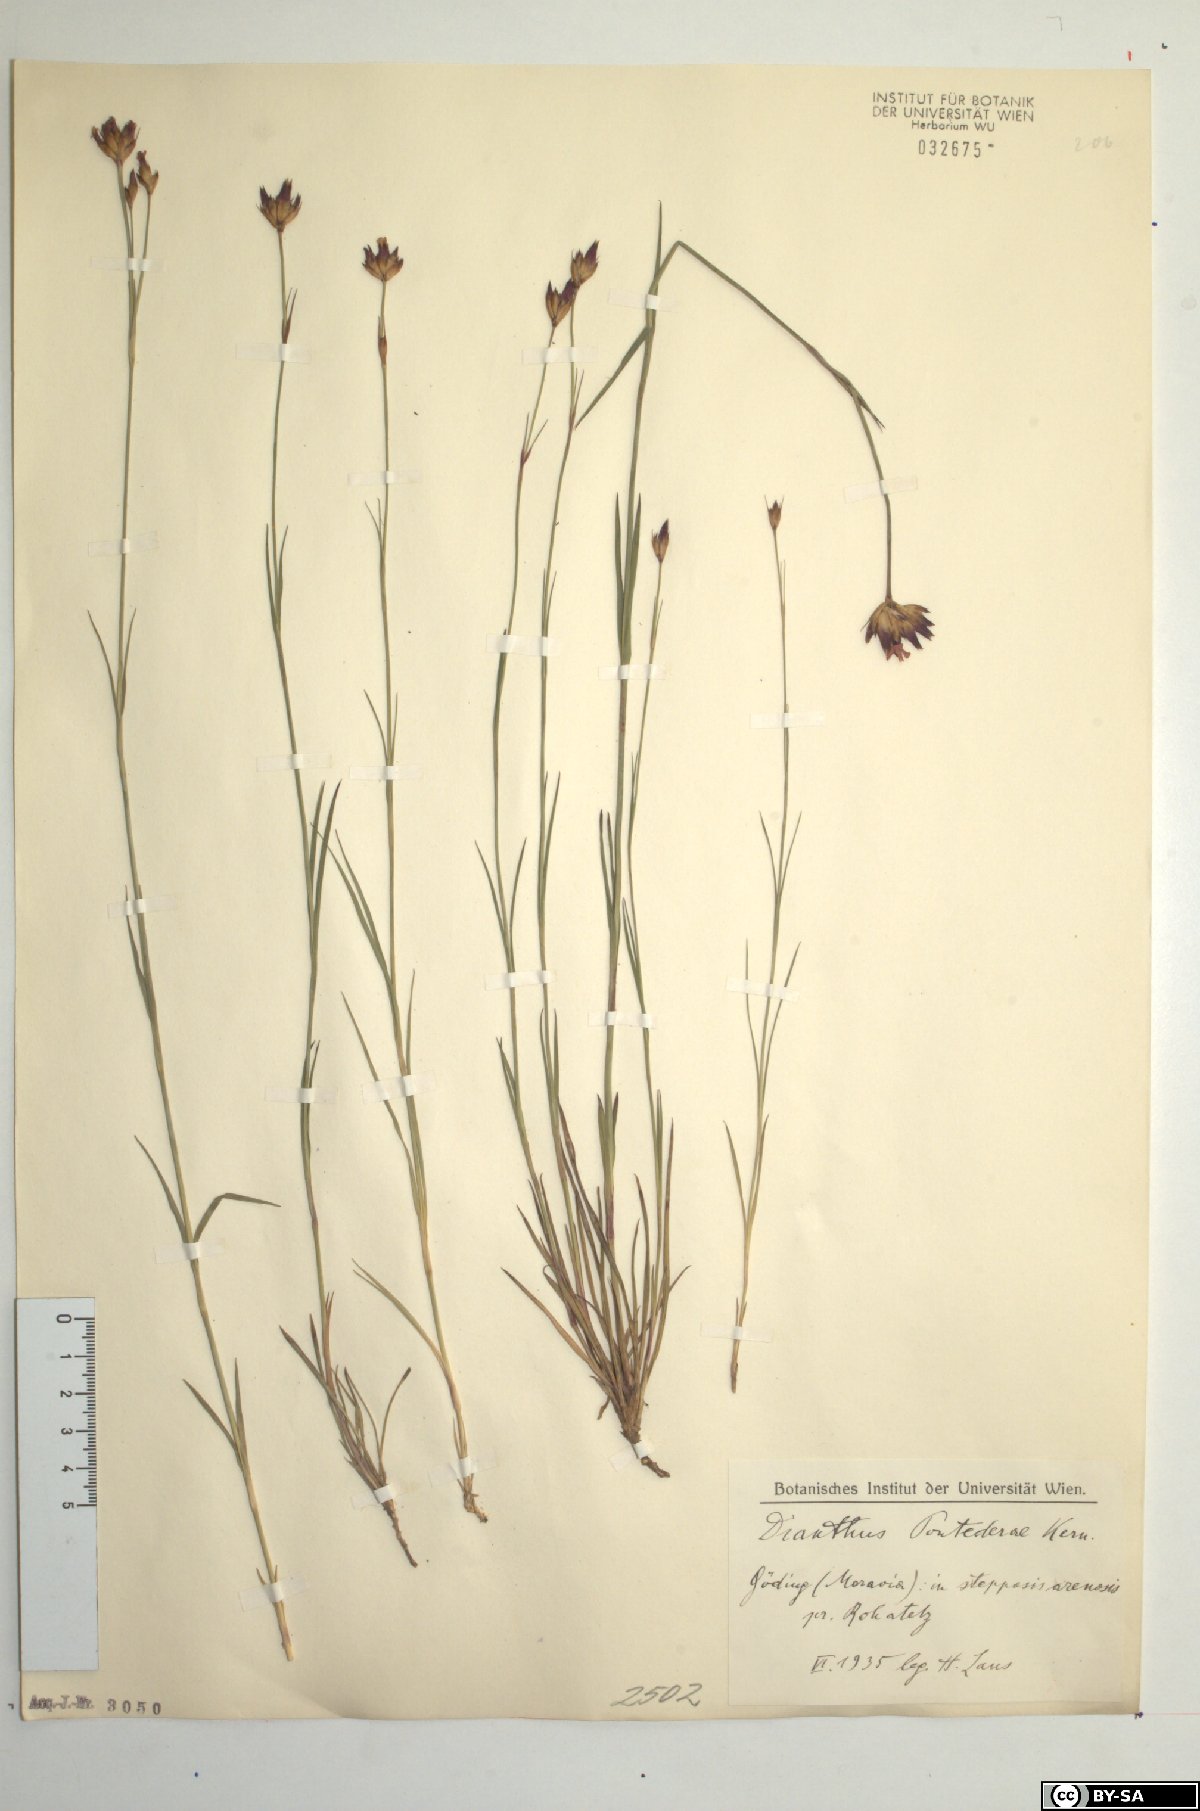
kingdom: Plantae
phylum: Tracheophyta
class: Magnoliopsida
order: Caryophyllales
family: Caryophyllaceae
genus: Dianthus
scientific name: Dianthus pontederae
